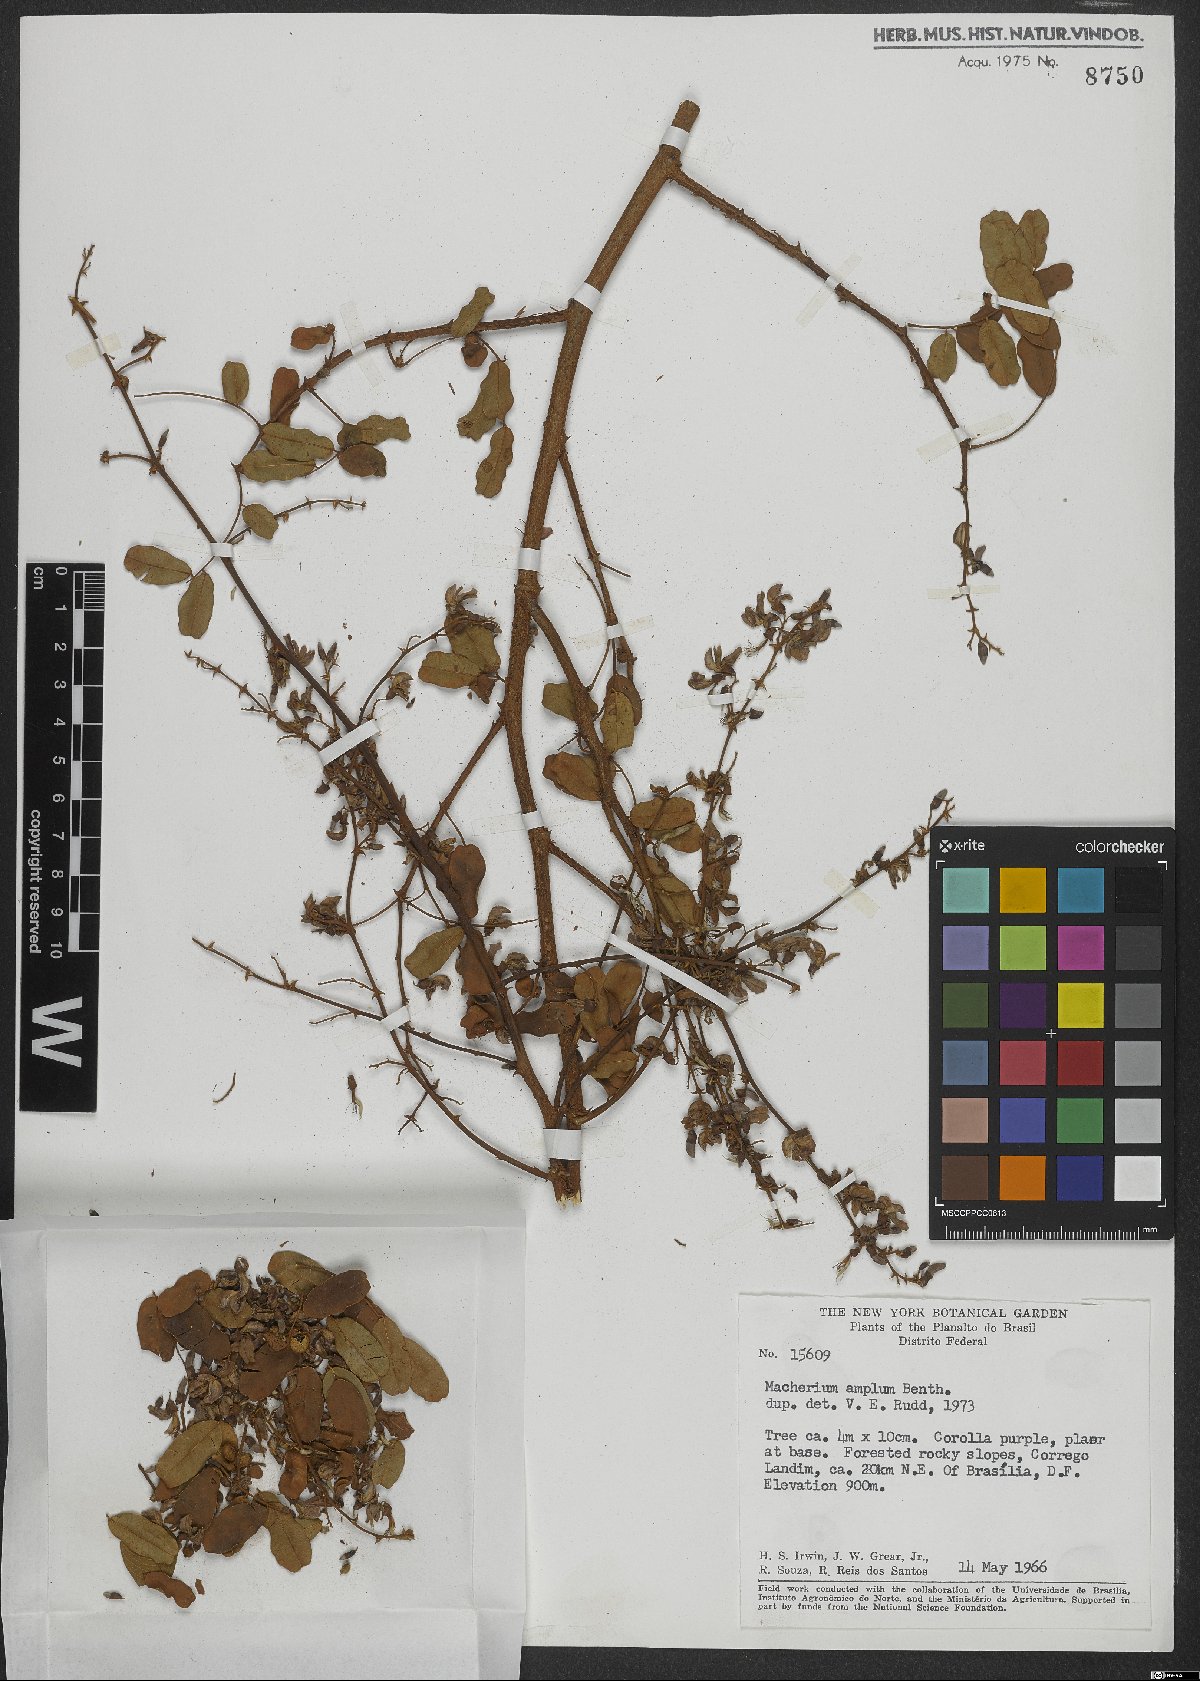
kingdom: Plantae
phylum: Tracheophyta
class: Magnoliopsida
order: Fabales
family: Fabaceae
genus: Machaerium
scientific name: Machaerium amplum
